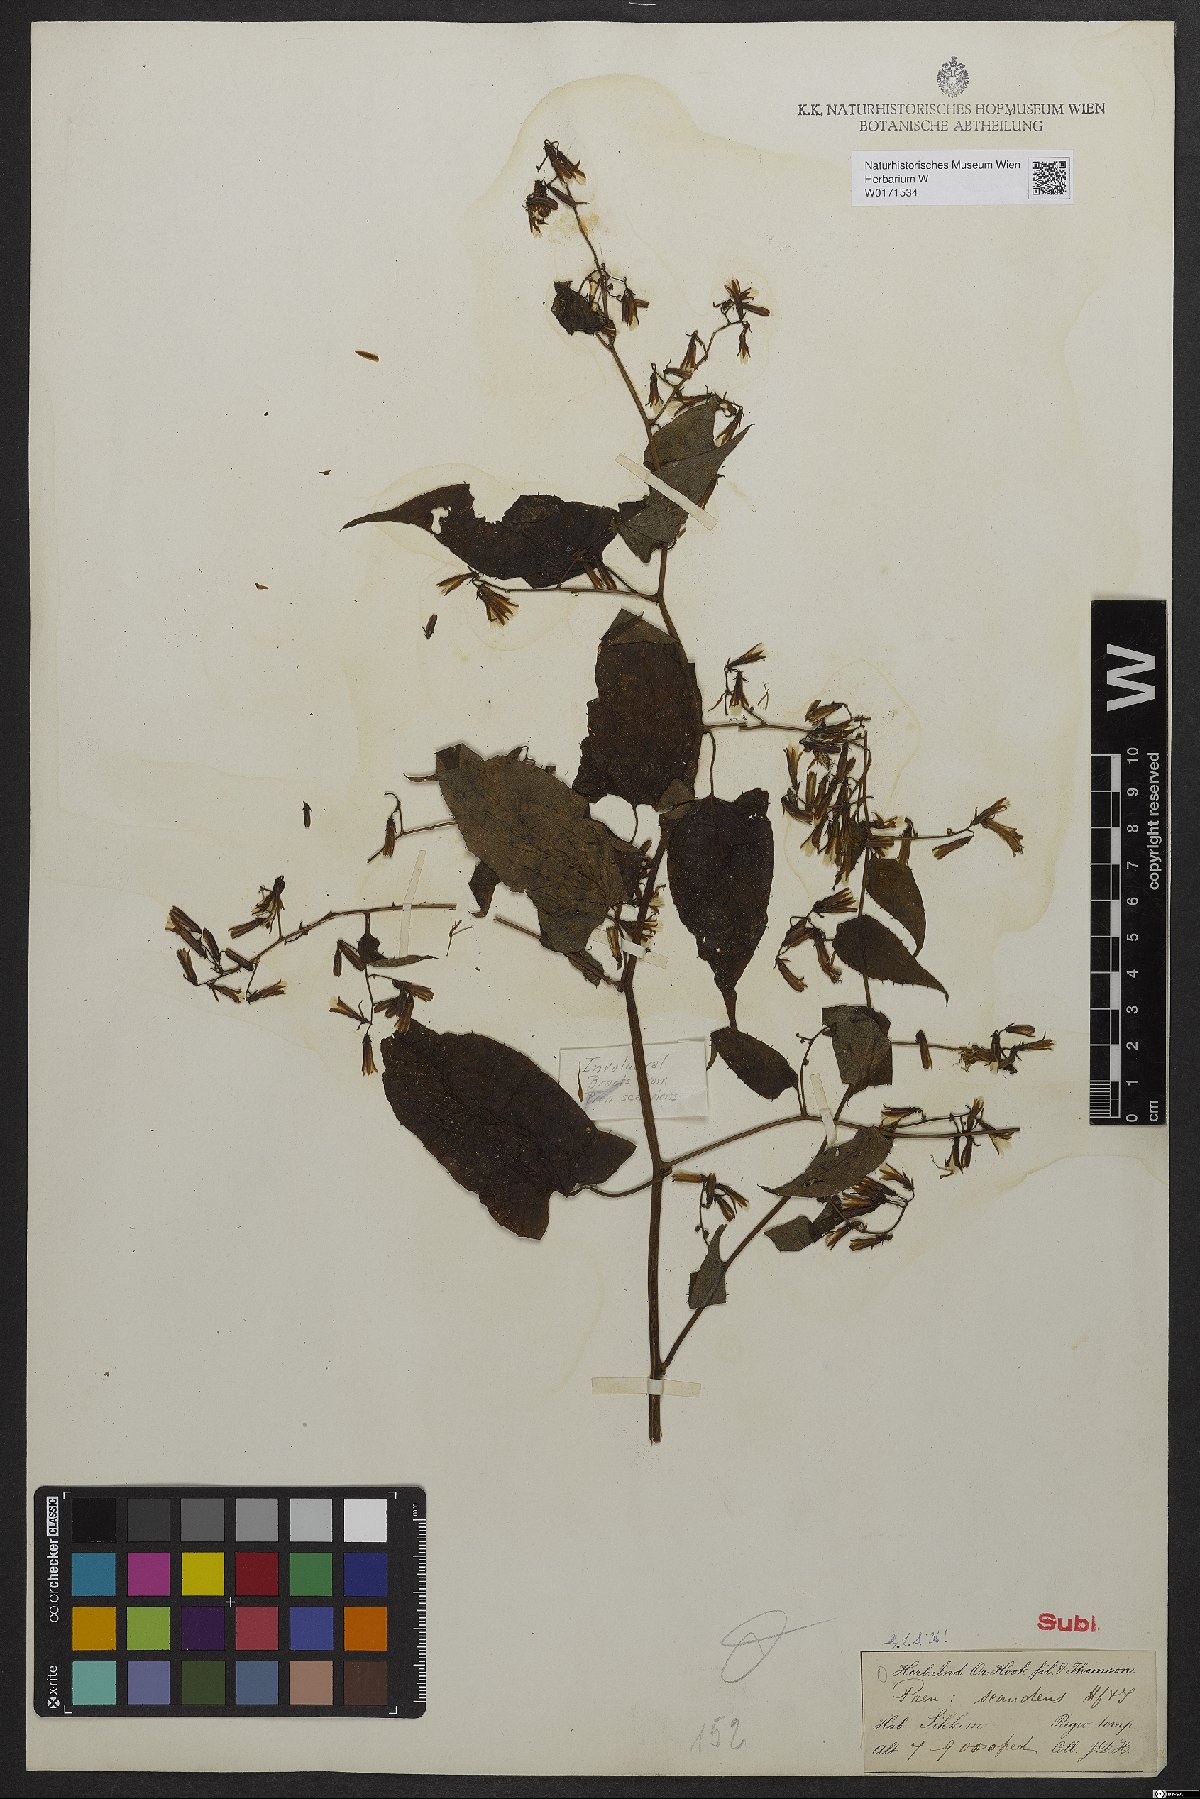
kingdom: Plantae
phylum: Tracheophyta
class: Magnoliopsida
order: Asterales
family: Asteraceae
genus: Notoseris
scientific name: Notoseris scandens
